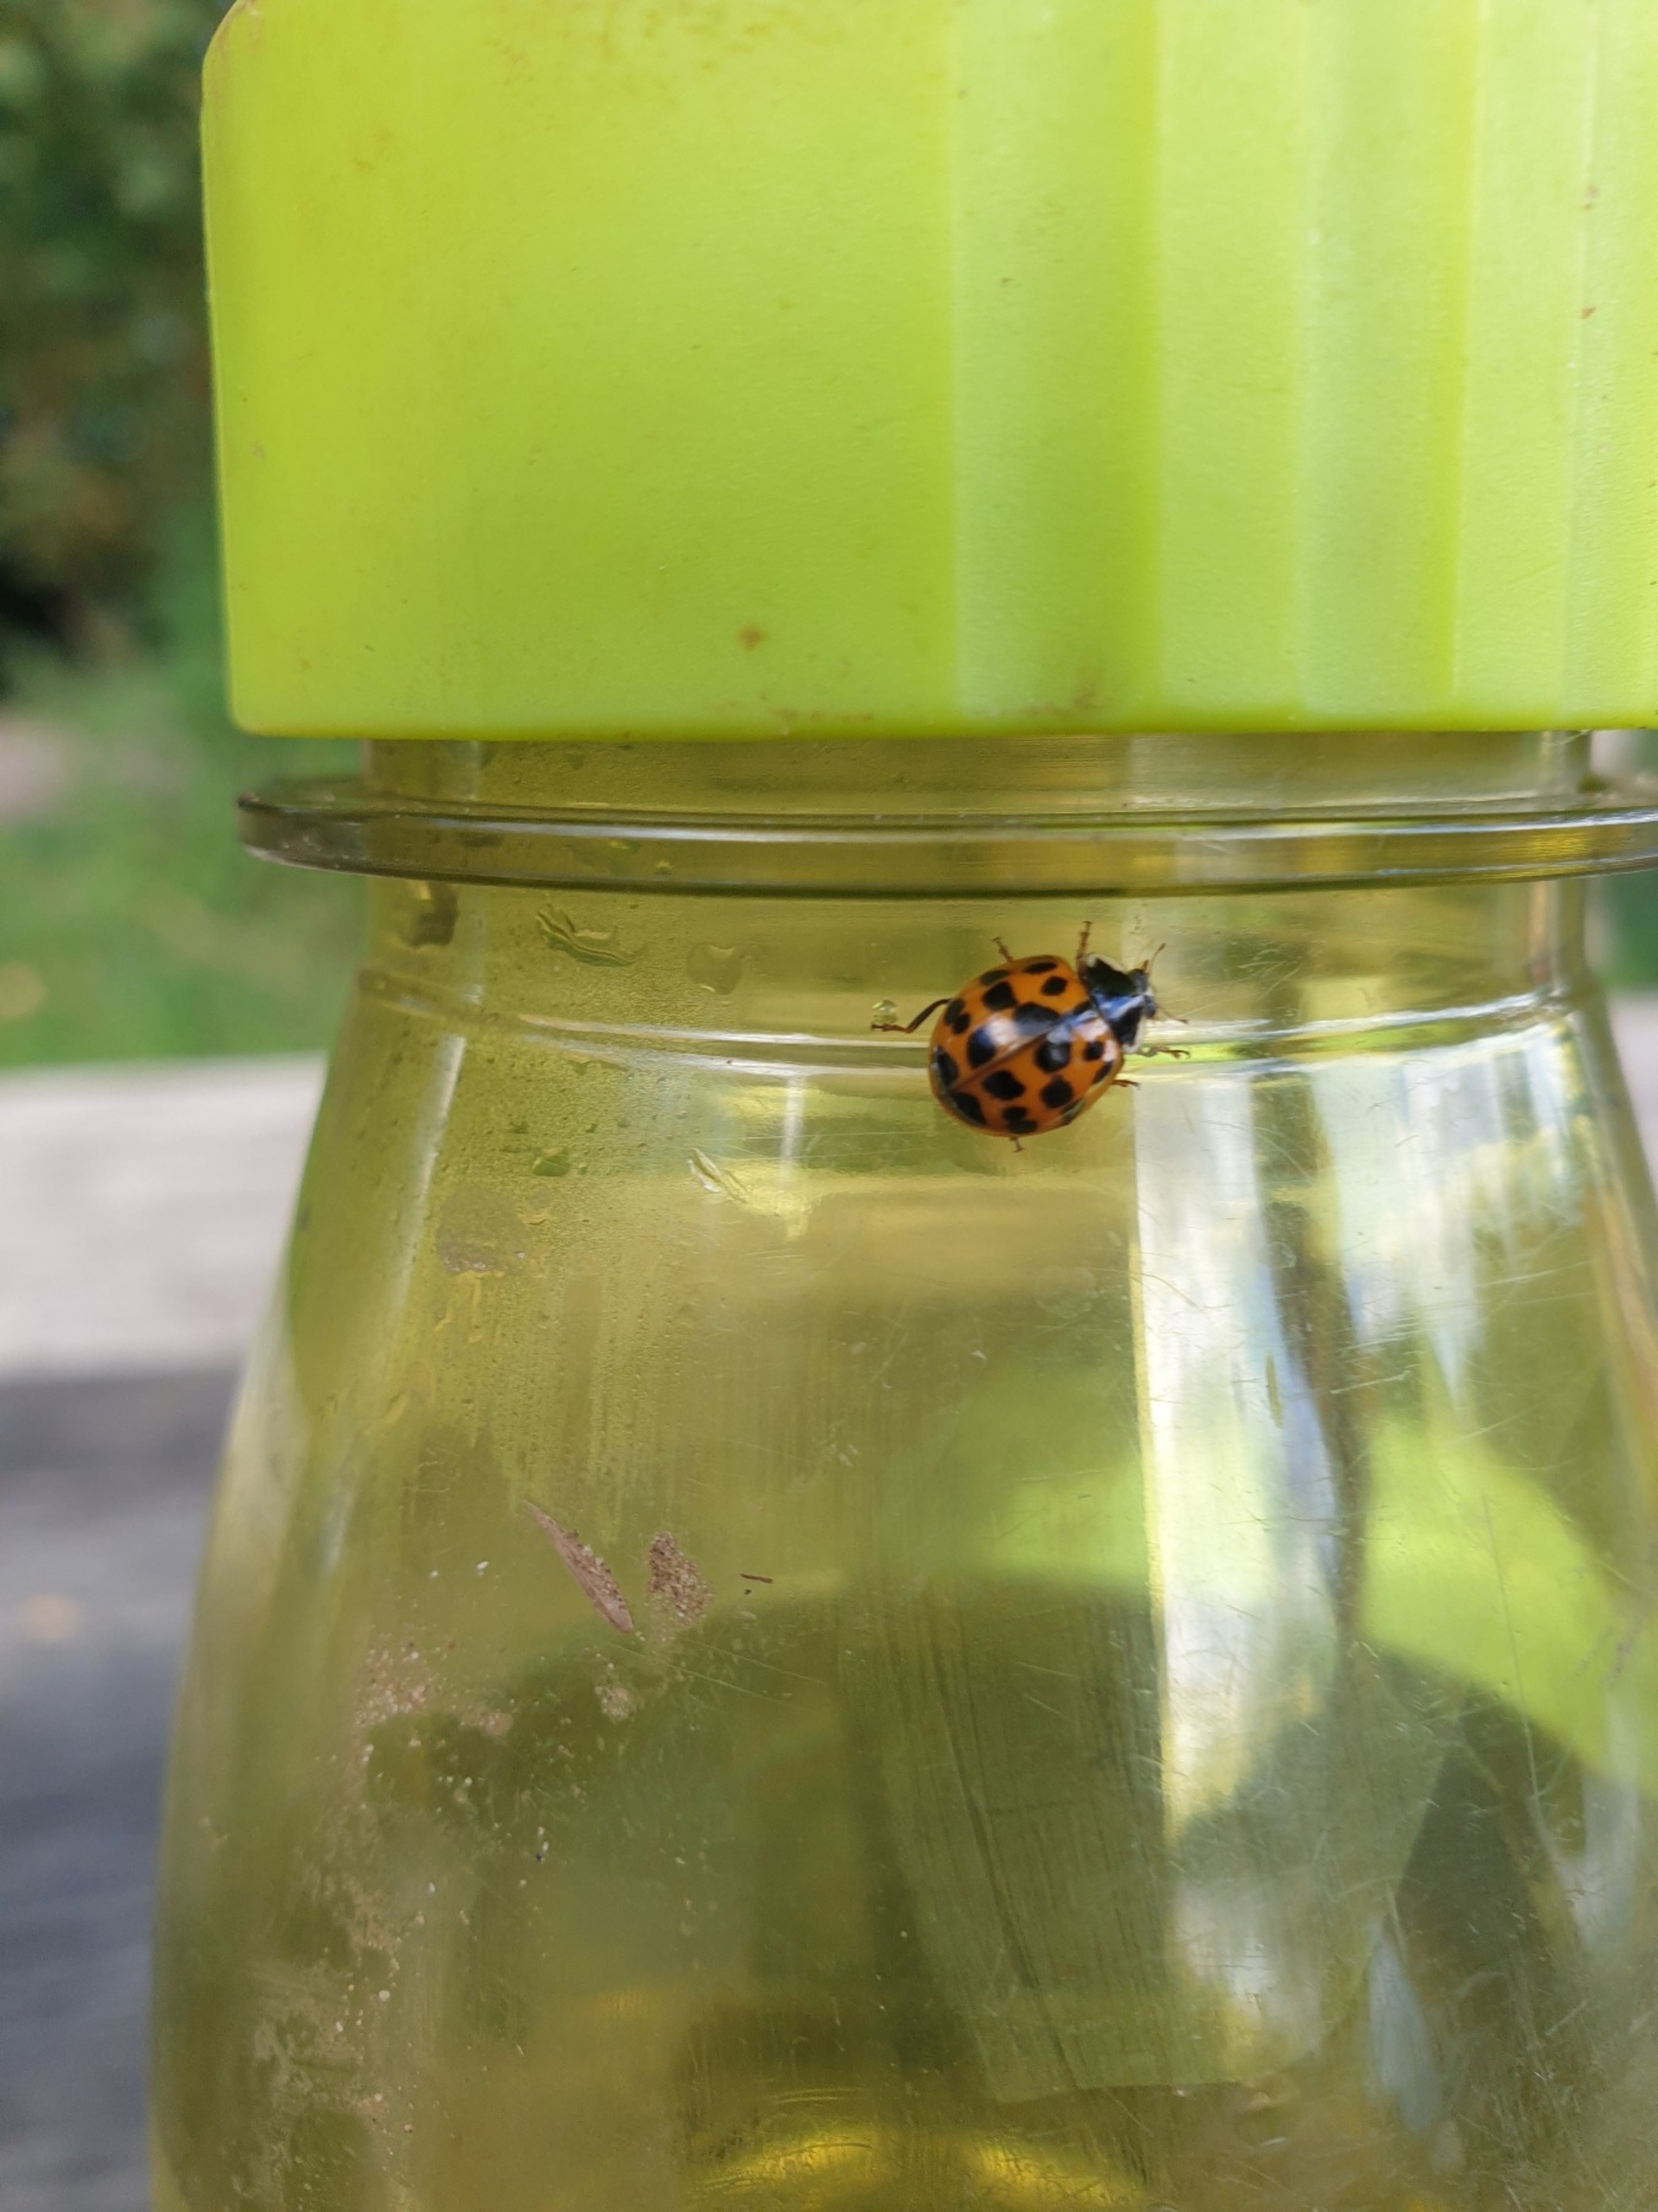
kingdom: Animalia
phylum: Arthropoda
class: Insecta
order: Coleoptera
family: Coccinellidae
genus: Harmonia
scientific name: Harmonia axyridis
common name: Harlekinmariehøne
